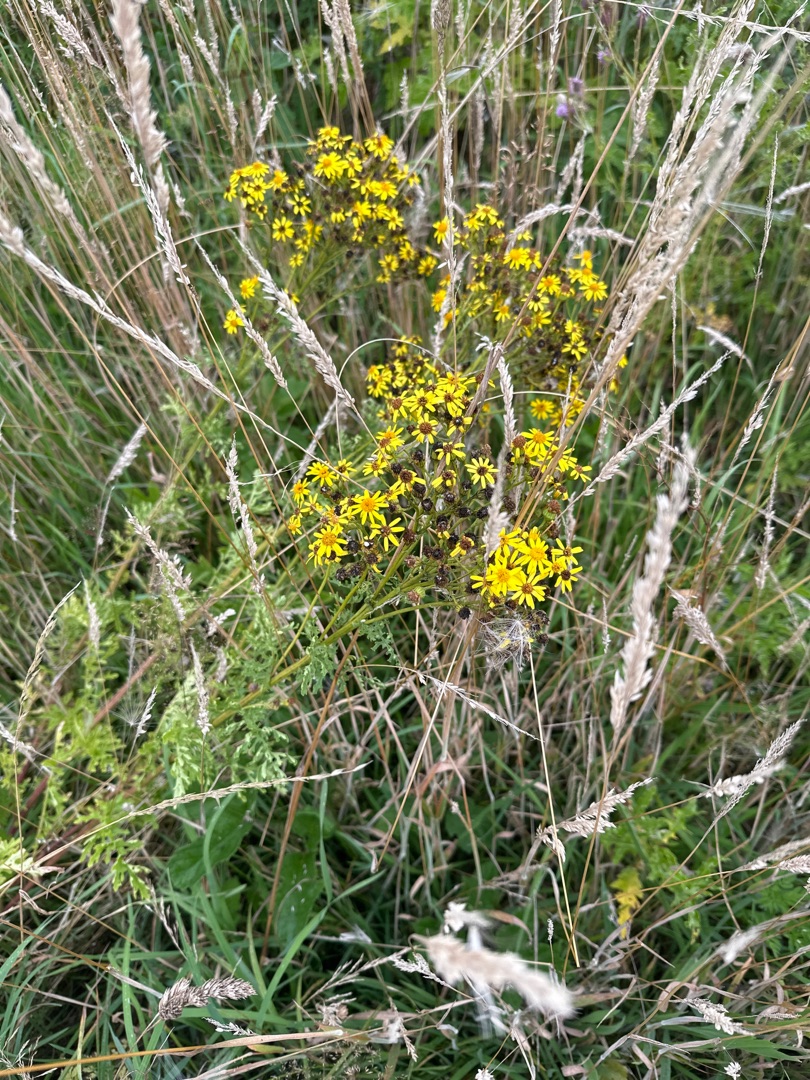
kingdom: Plantae
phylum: Tracheophyta
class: Magnoliopsida
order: Asterales
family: Asteraceae
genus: Jacobaea
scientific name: Jacobaea vulgaris
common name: Eng-brandbæger
